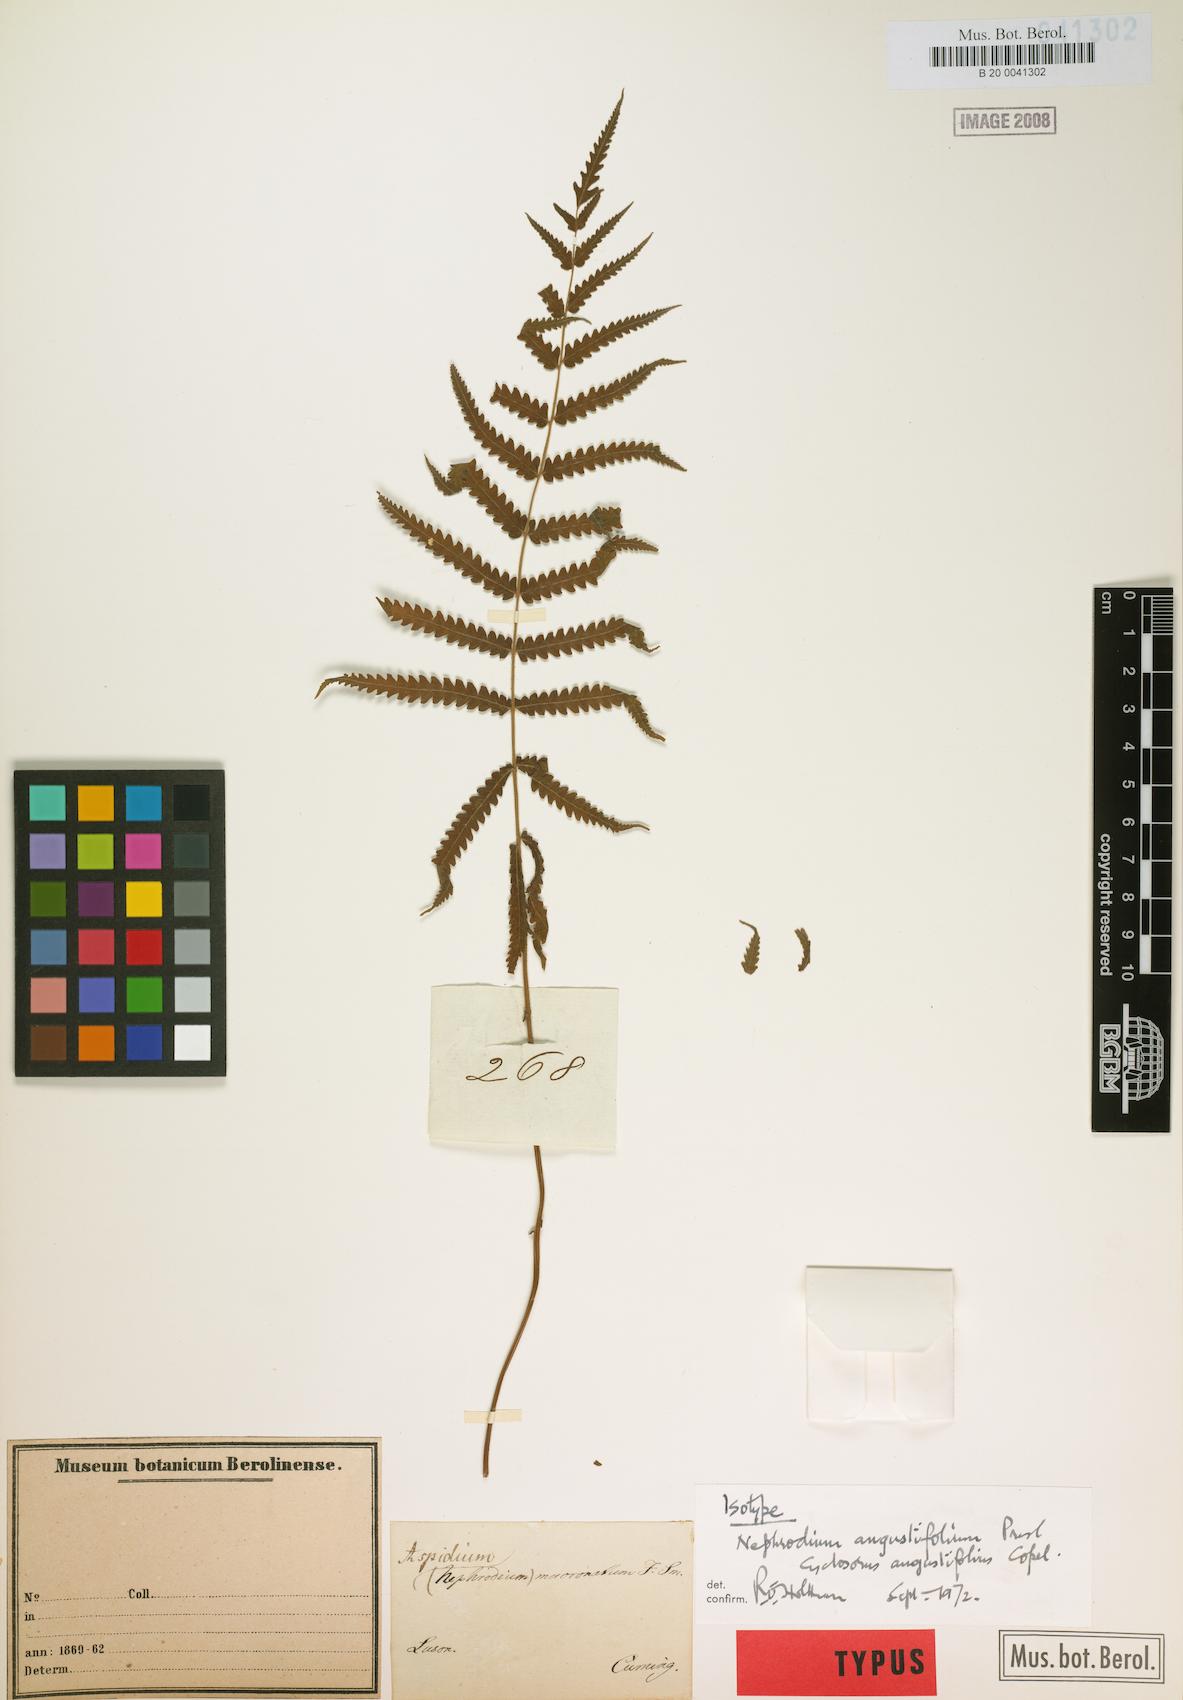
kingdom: Plantae
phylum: Tracheophyta
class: Polypodiopsida
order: Polypodiales
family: Thelypteridaceae
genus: Sphaerostephanos
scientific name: Sphaerostephanos angustifolius
